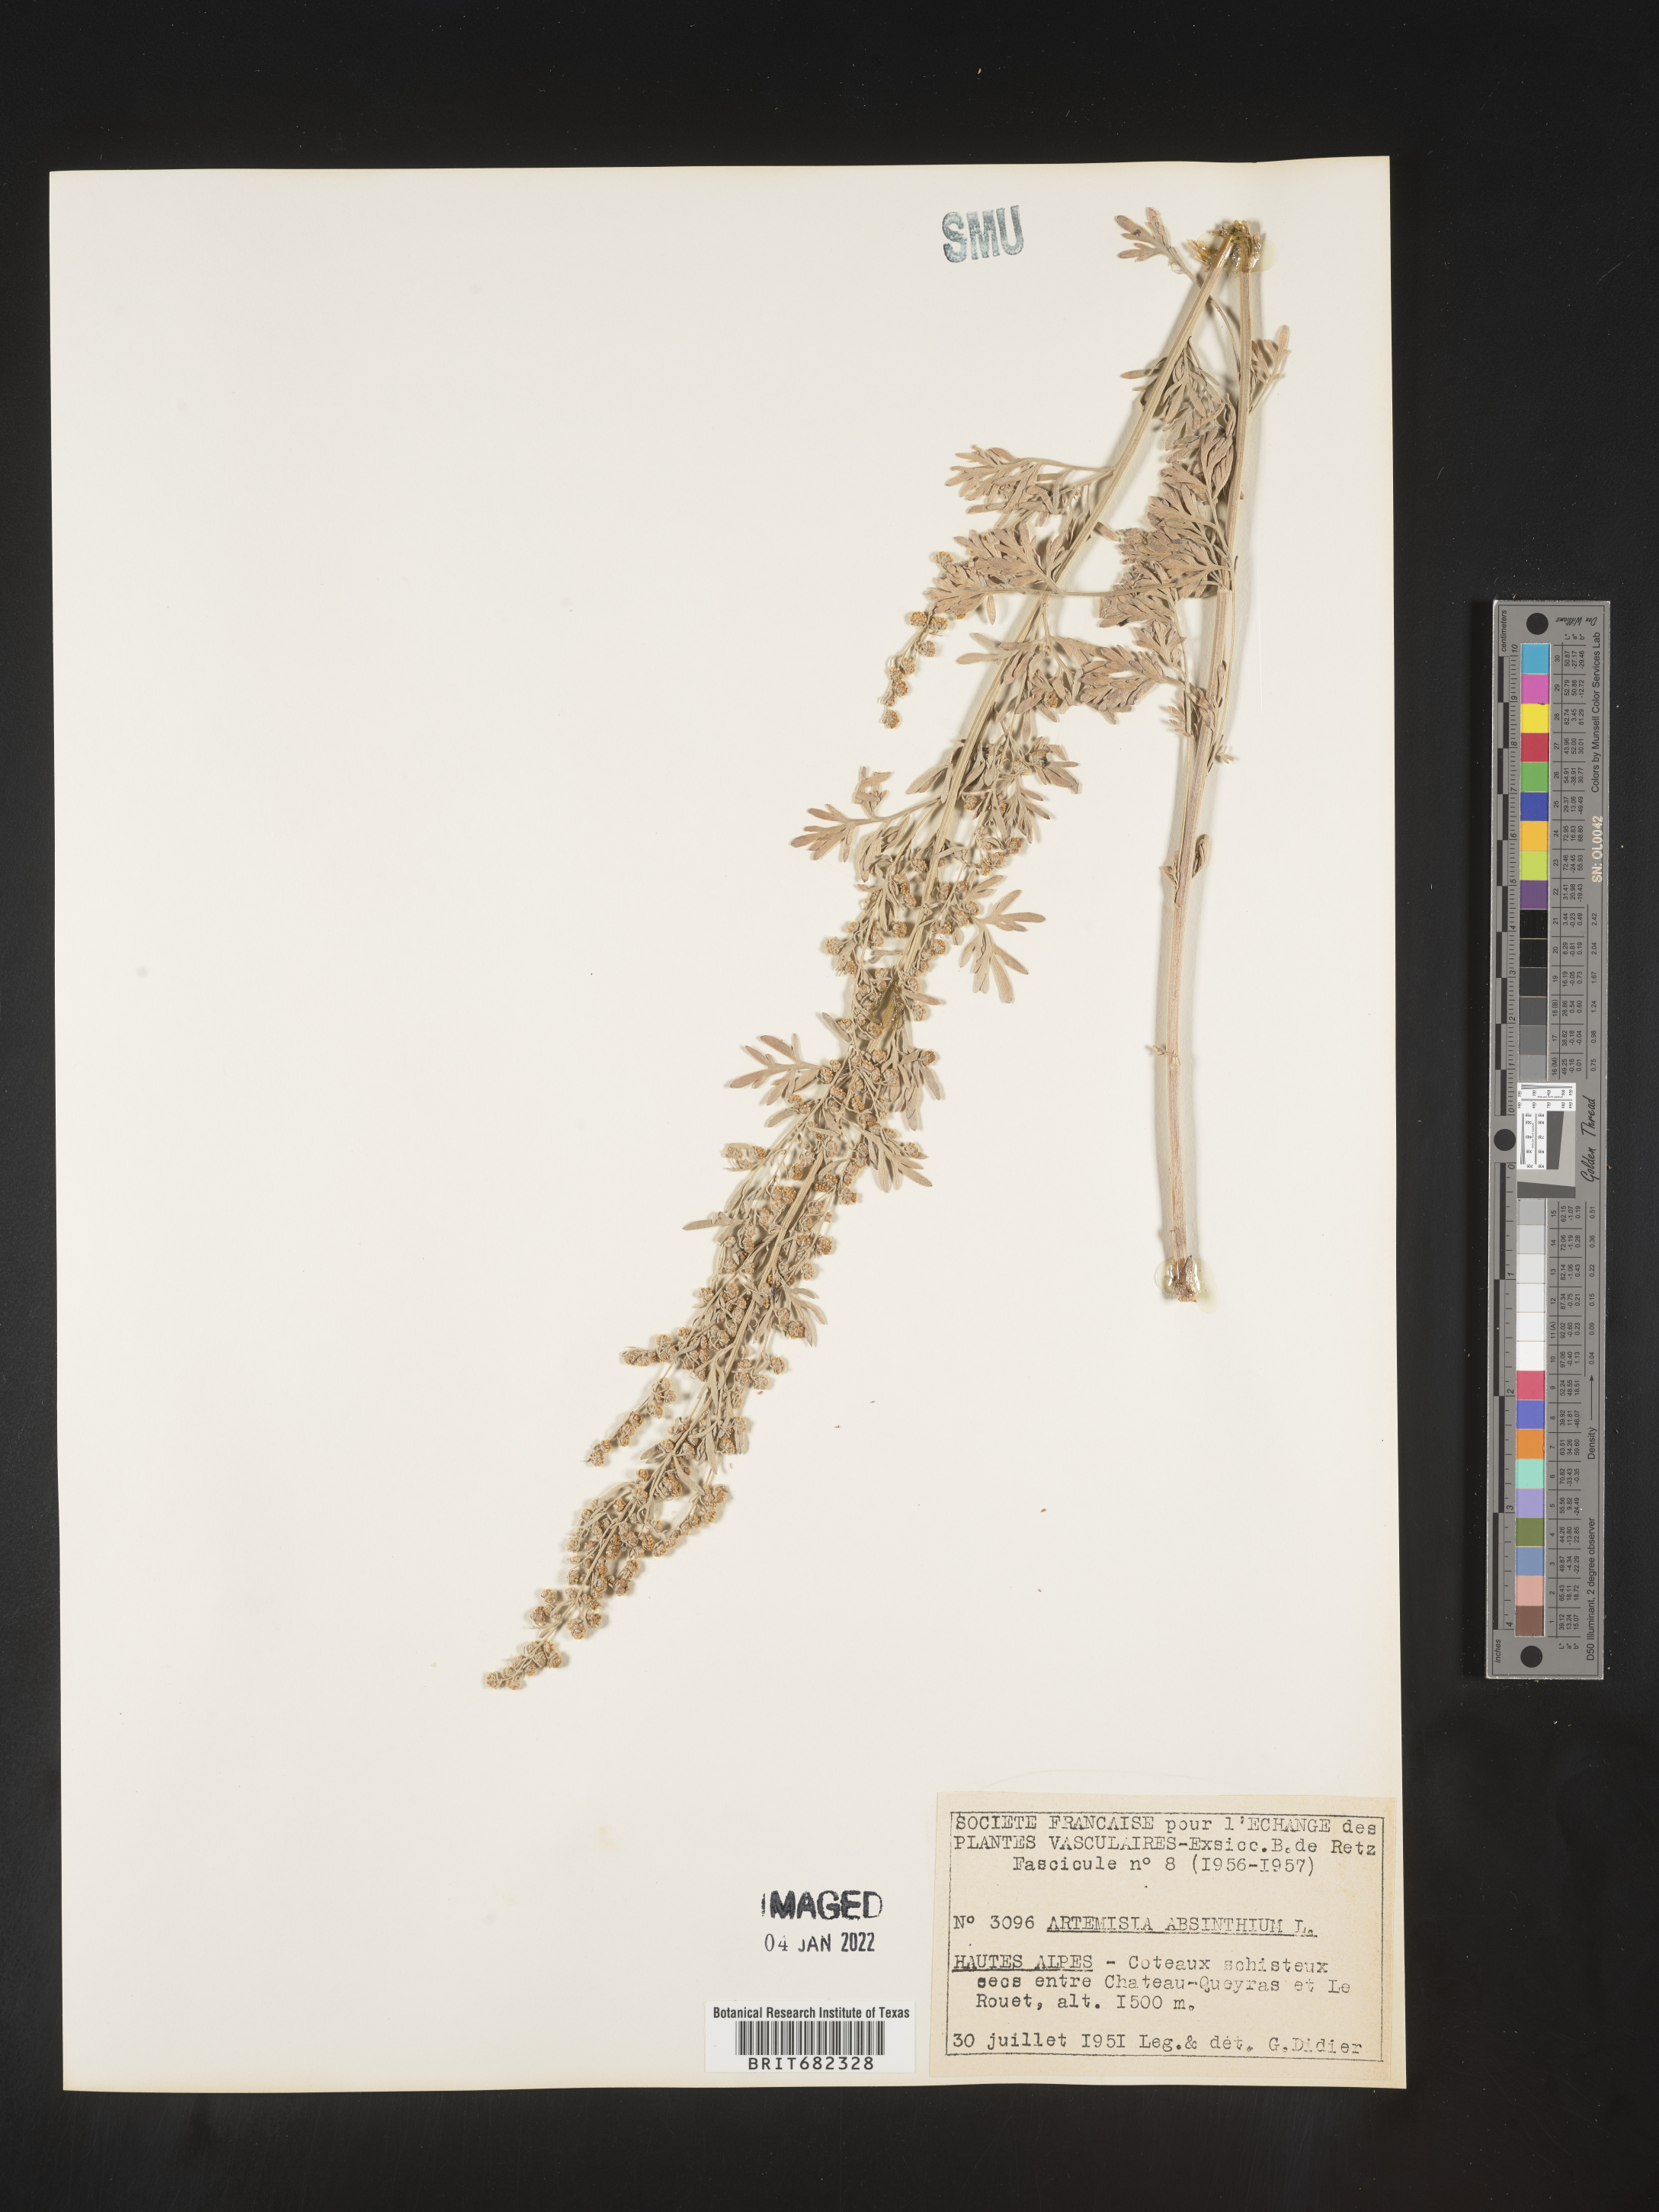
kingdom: Plantae
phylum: Tracheophyta
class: Magnoliopsida
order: Asterales
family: Asteraceae
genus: Artemisia
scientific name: Artemisia
